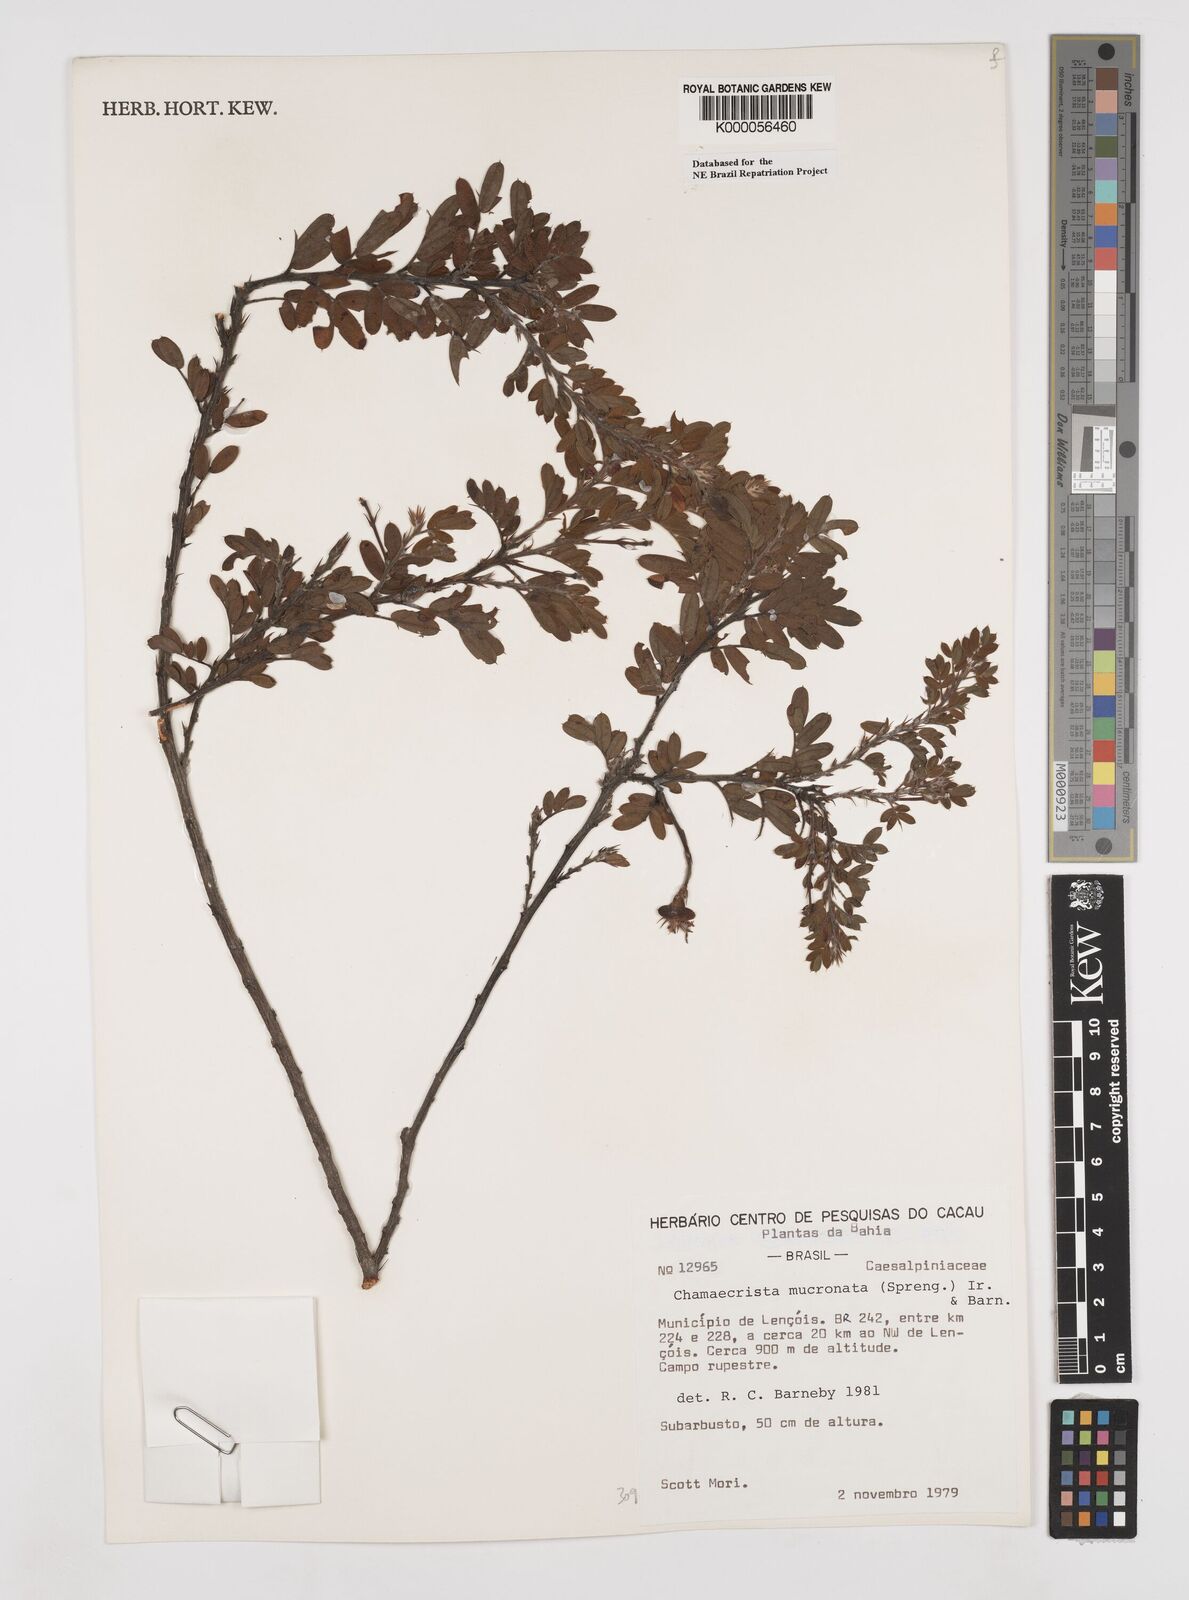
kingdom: Plantae
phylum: Tracheophyta
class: Magnoliopsida
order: Fabales
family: Fabaceae
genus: Chamaecrista
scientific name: Chamaecrista mucronata
